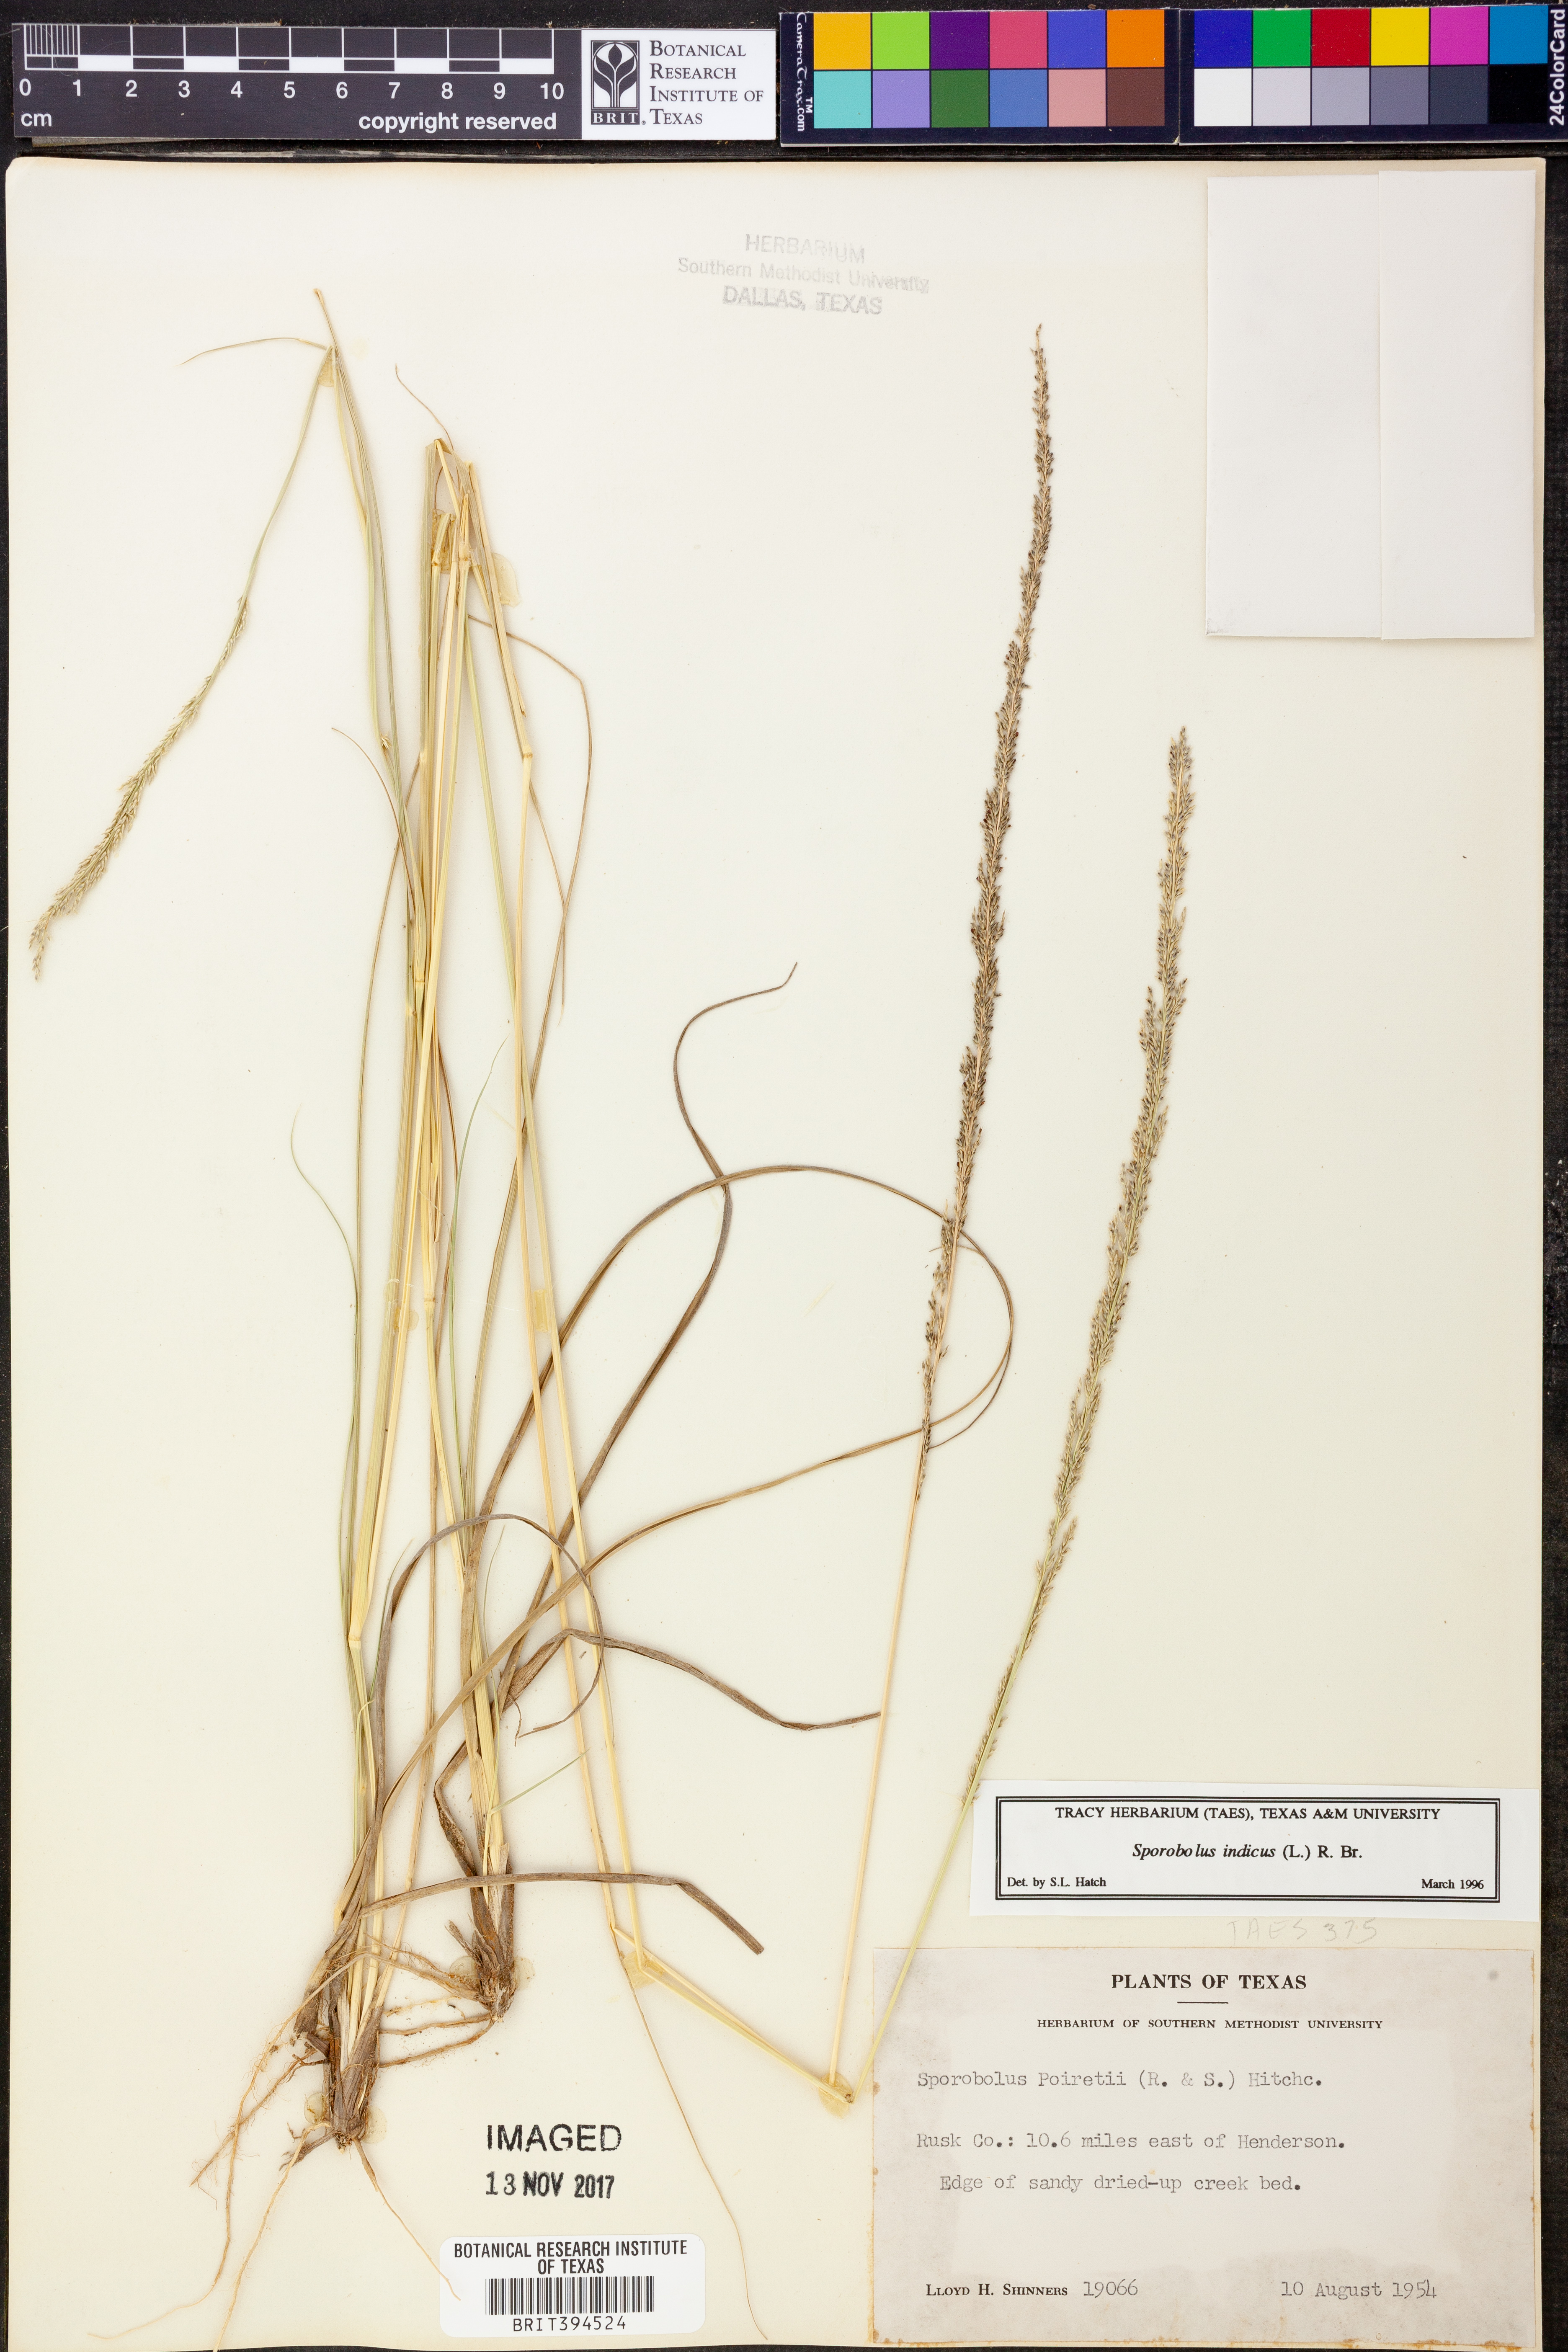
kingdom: Plantae
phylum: Tracheophyta
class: Liliopsida
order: Poales
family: Poaceae
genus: Sporobolus
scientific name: Sporobolus indicus
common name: Smut grass
